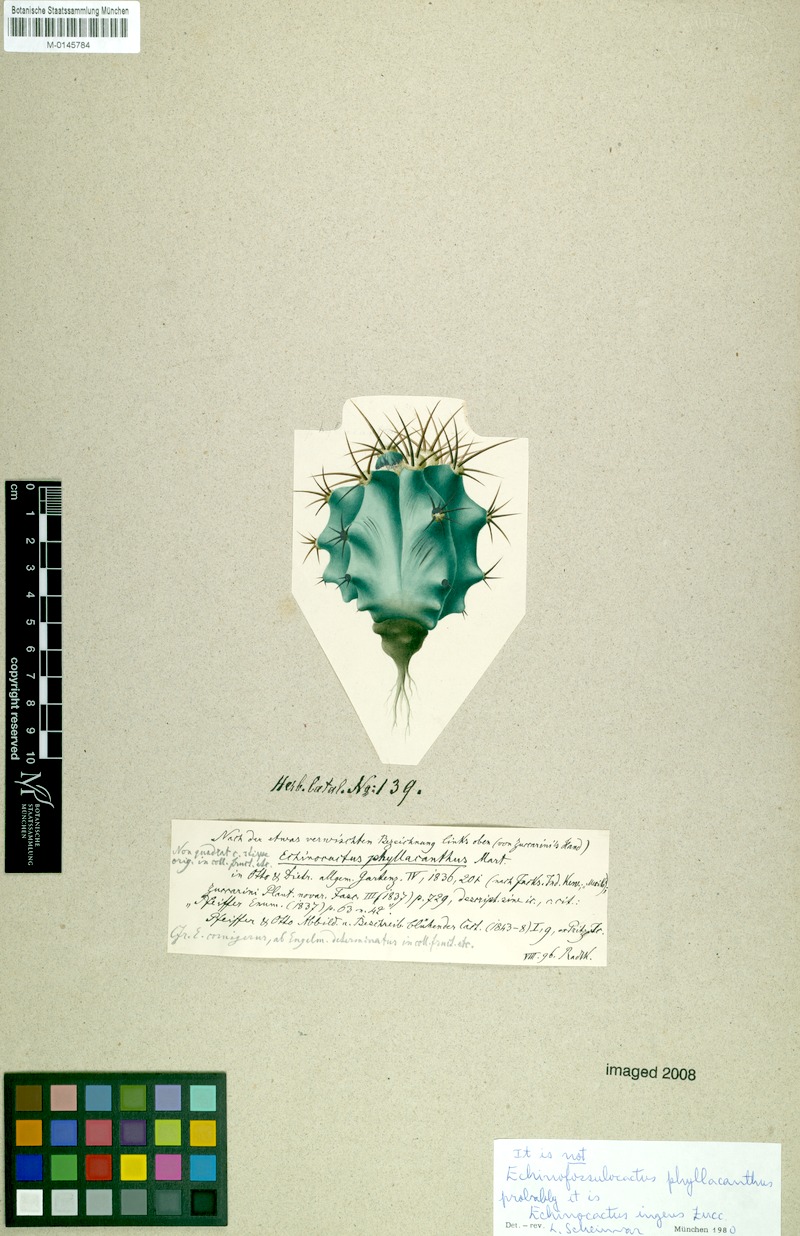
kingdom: Plantae
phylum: Tracheophyta
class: Magnoliopsida
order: Caryophyllales
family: Cactaceae
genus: Echinocactus
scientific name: Echinocactus platyacanthus
